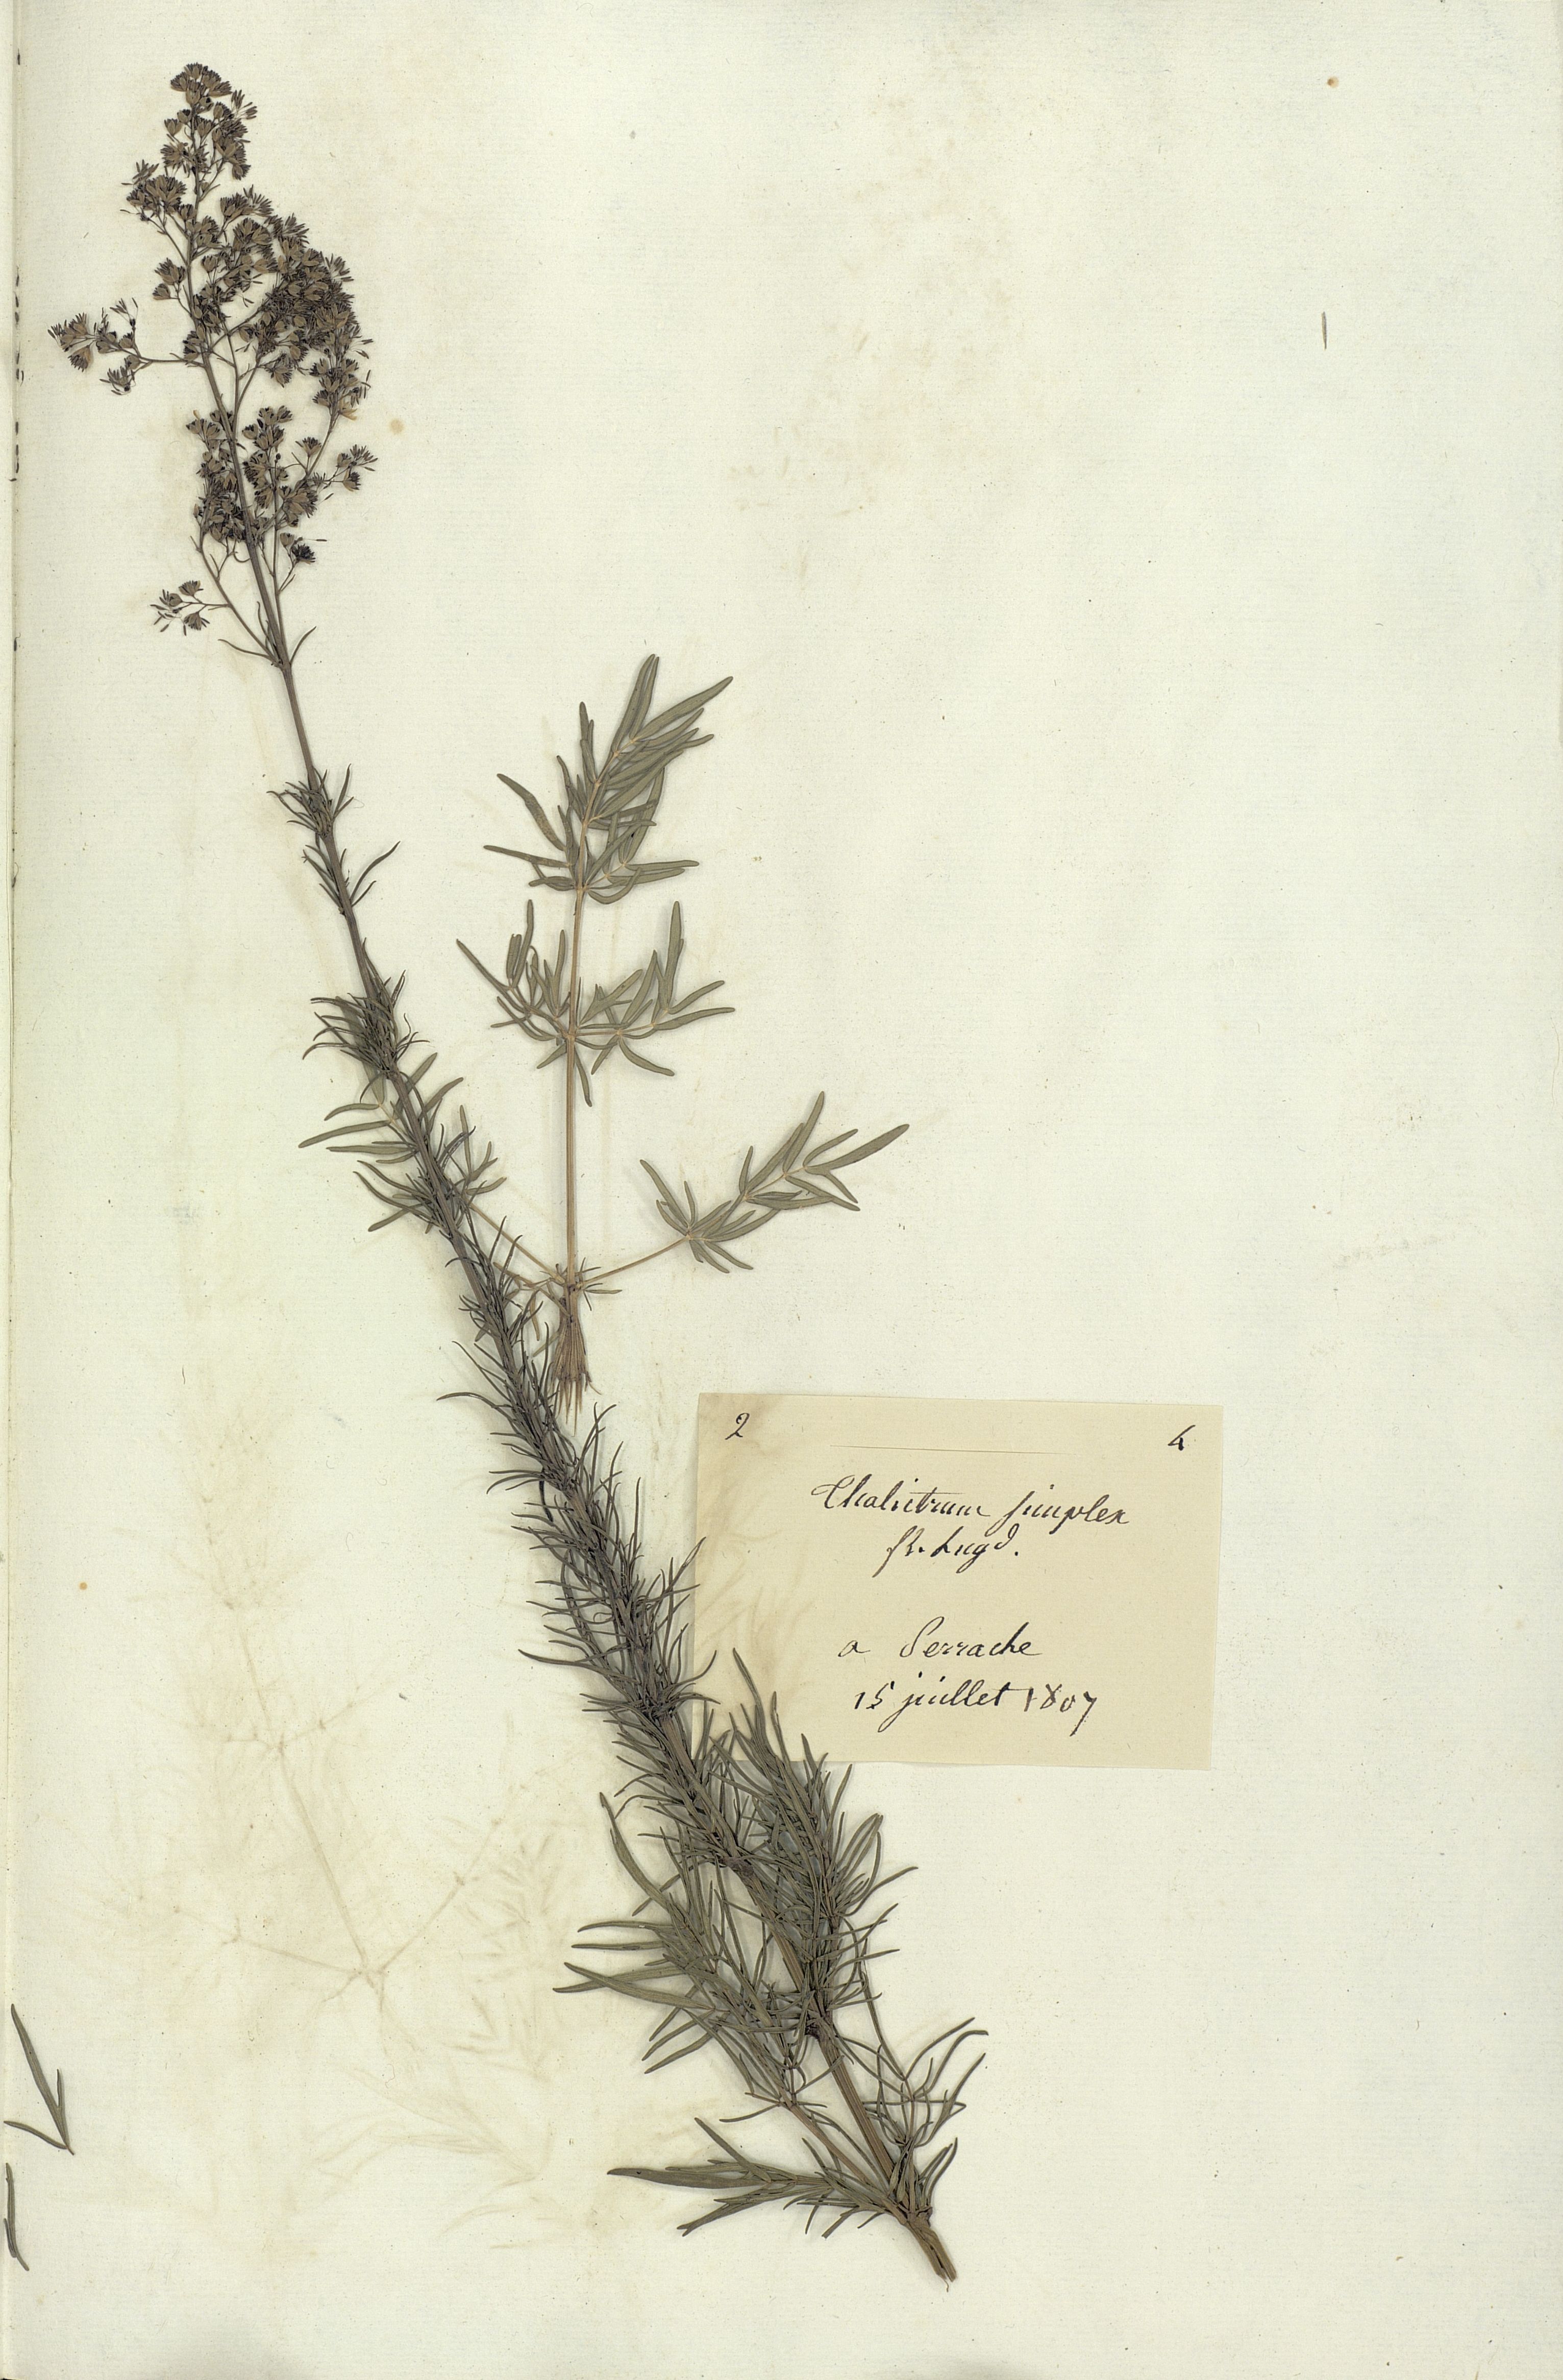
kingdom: Plantae
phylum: Tracheophyta
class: Magnoliopsida
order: Ranunculales
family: Ranunculaceae
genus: Thalictrum
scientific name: Thalictrum simplex
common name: Small meadow-rue
